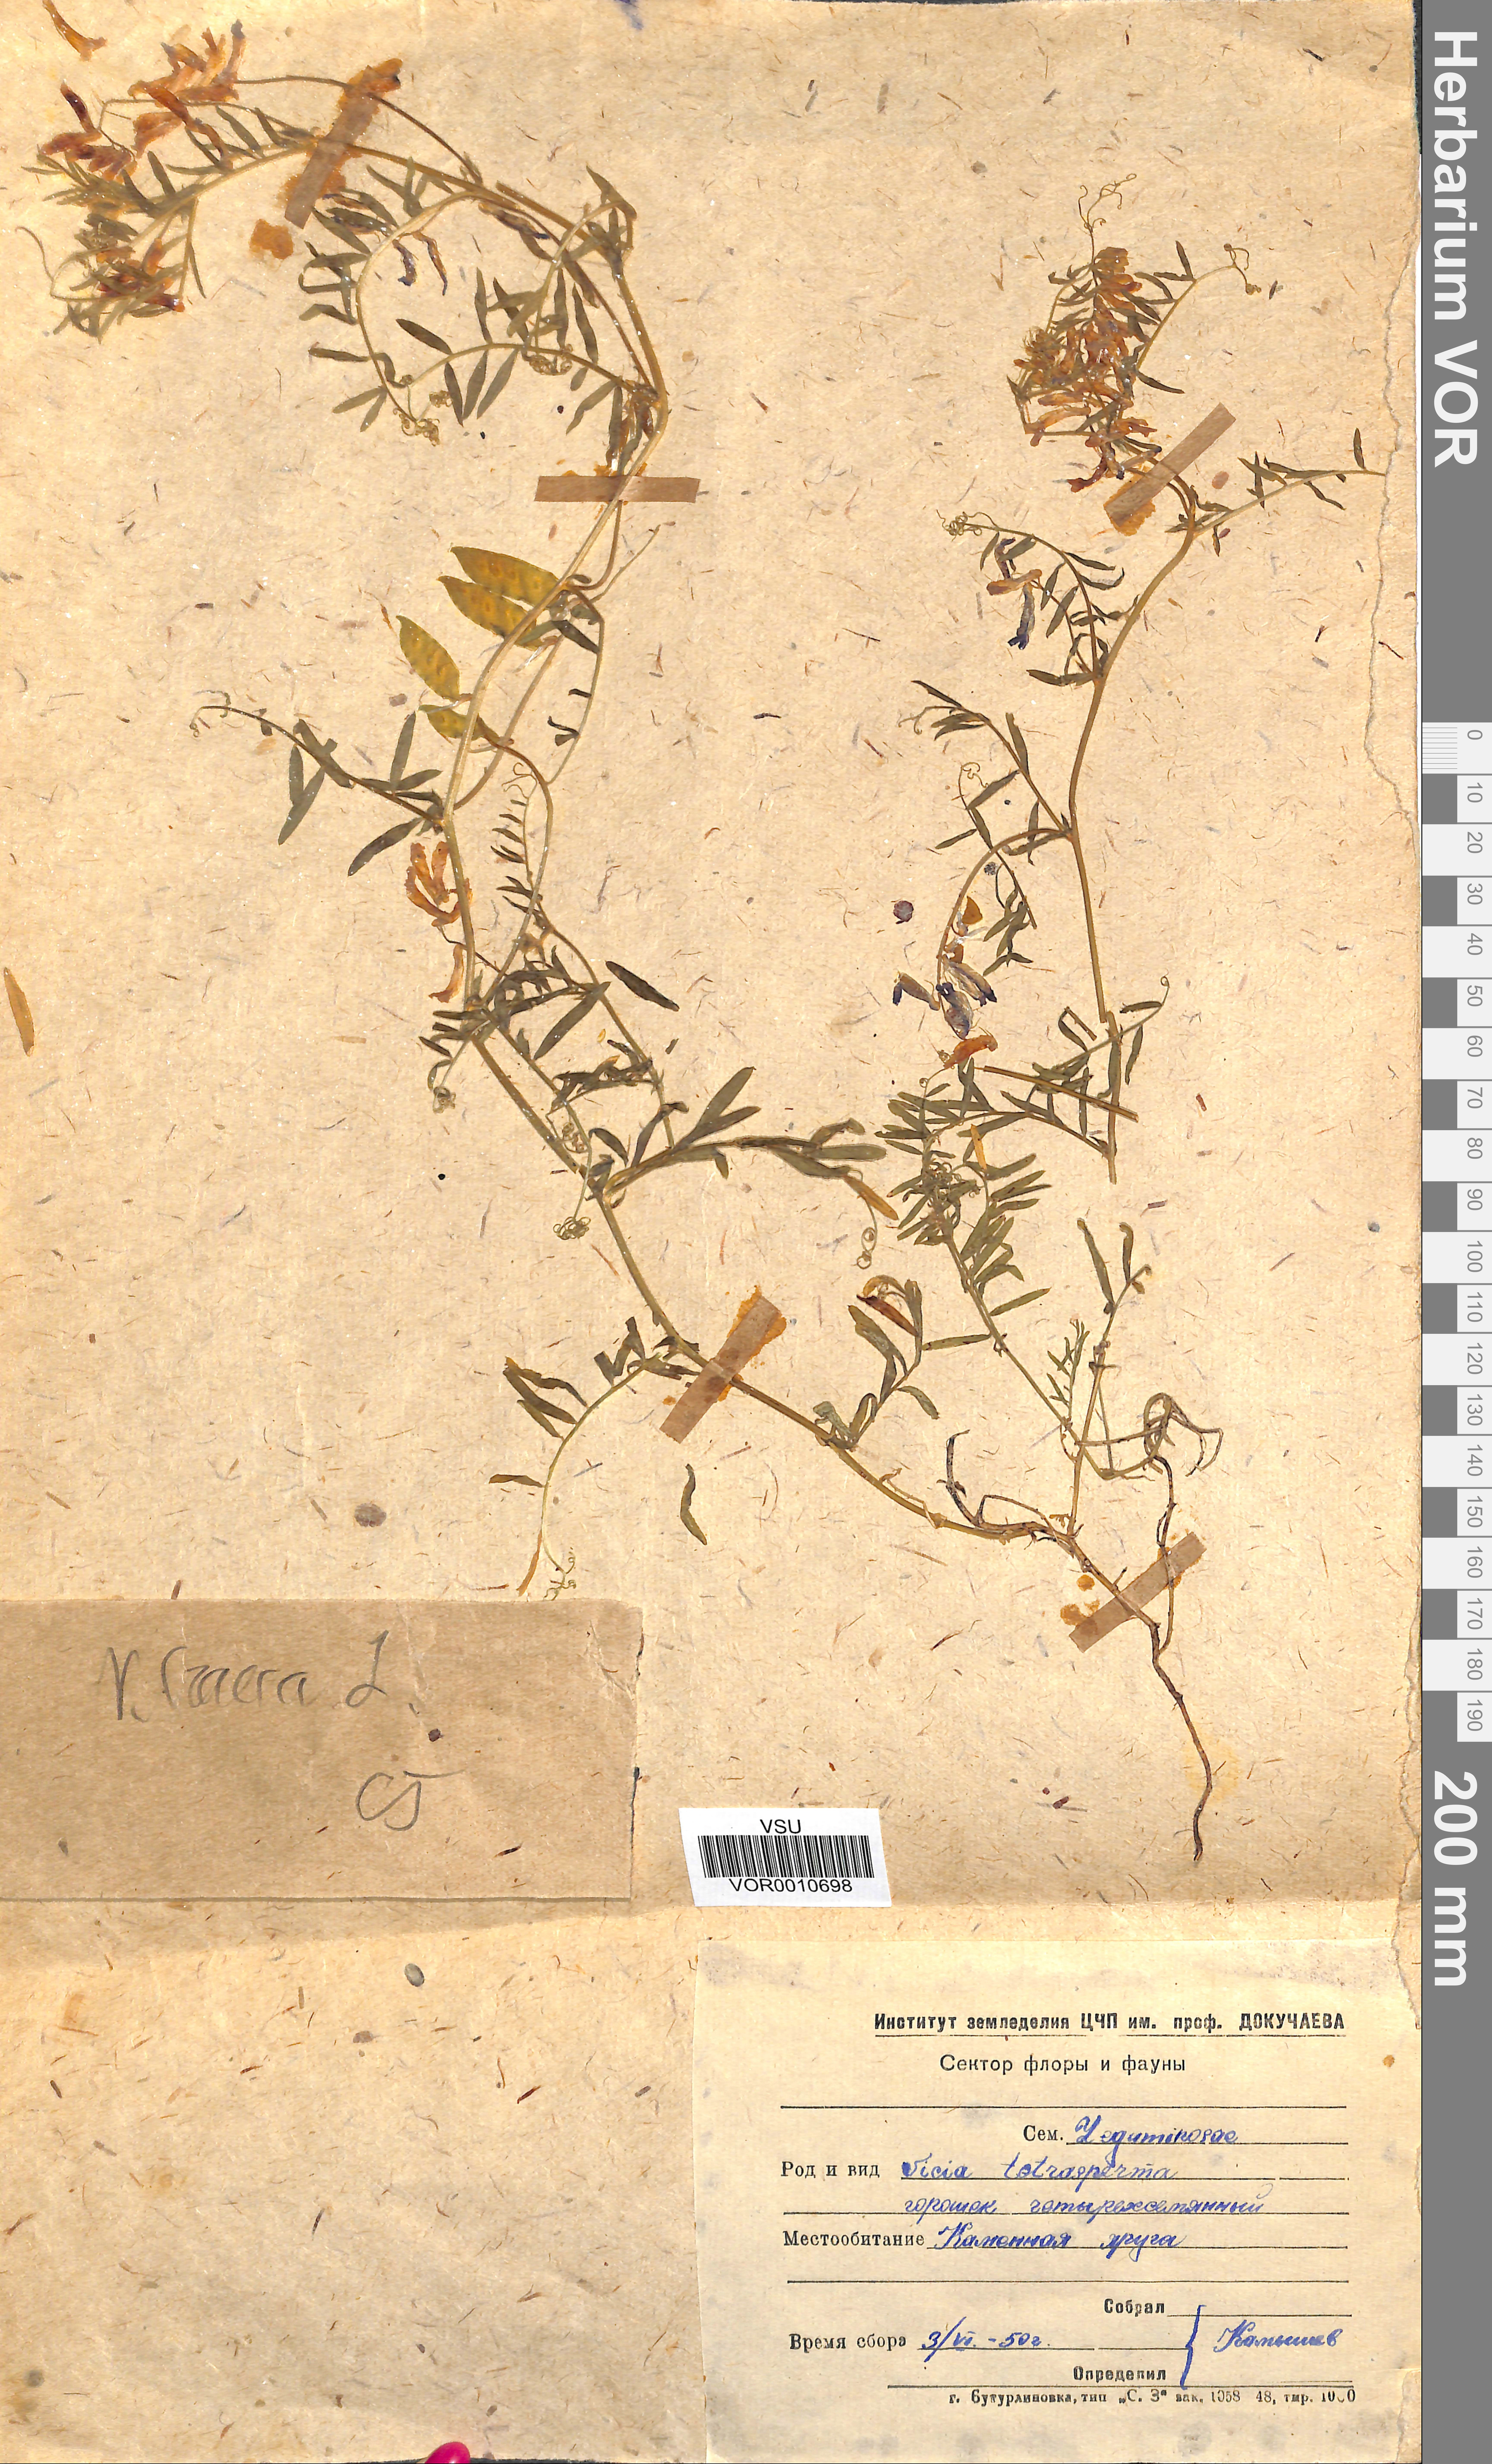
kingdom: Plantae
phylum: Tracheophyta
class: Magnoliopsida
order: Fabales
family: Fabaceae
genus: Vicia
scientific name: Vicia tetrasperma
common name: Smooth tare
